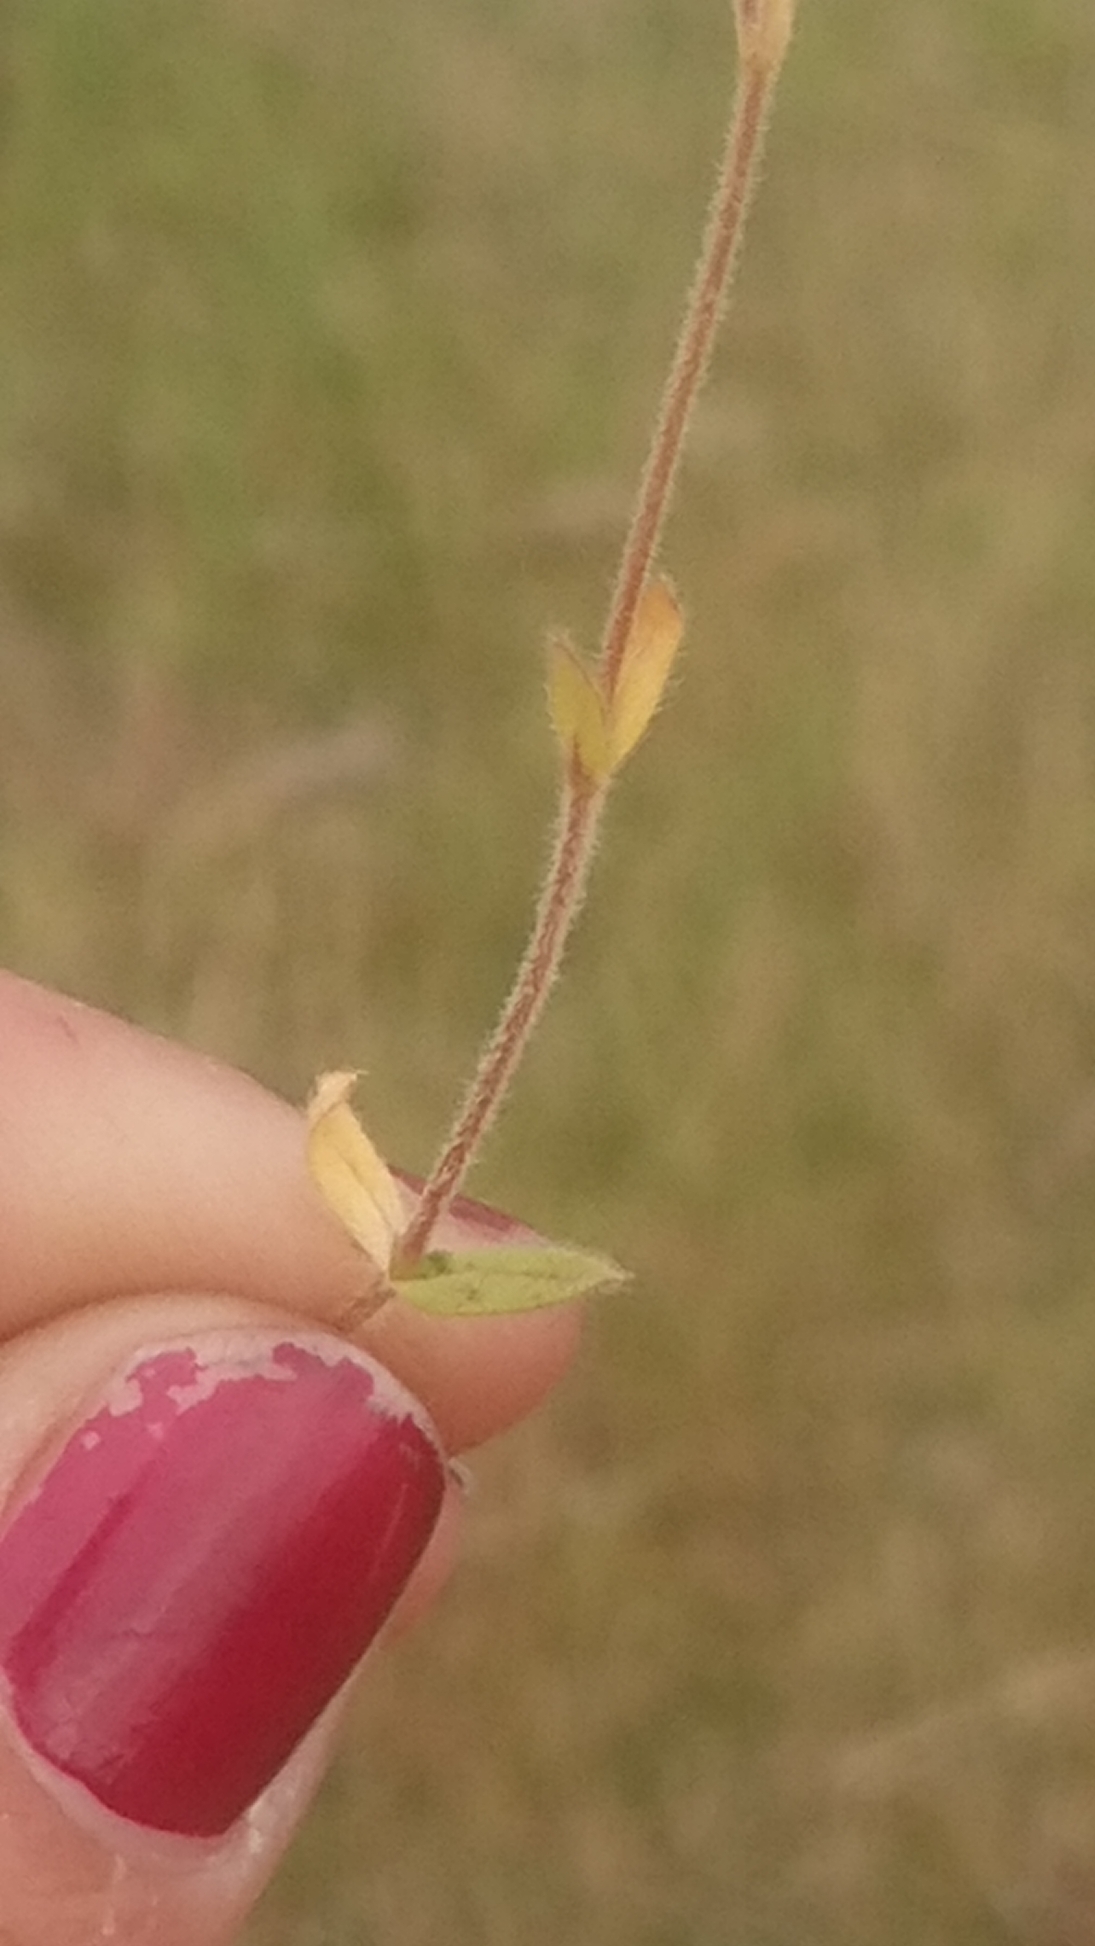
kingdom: Plantae
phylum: Tracheophyta
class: Magnoliopsida
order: Caryophyllales
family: Caryophyllaceae
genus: Cerastium
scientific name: Cerastium fontanum
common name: Almindelig hønsetarm
